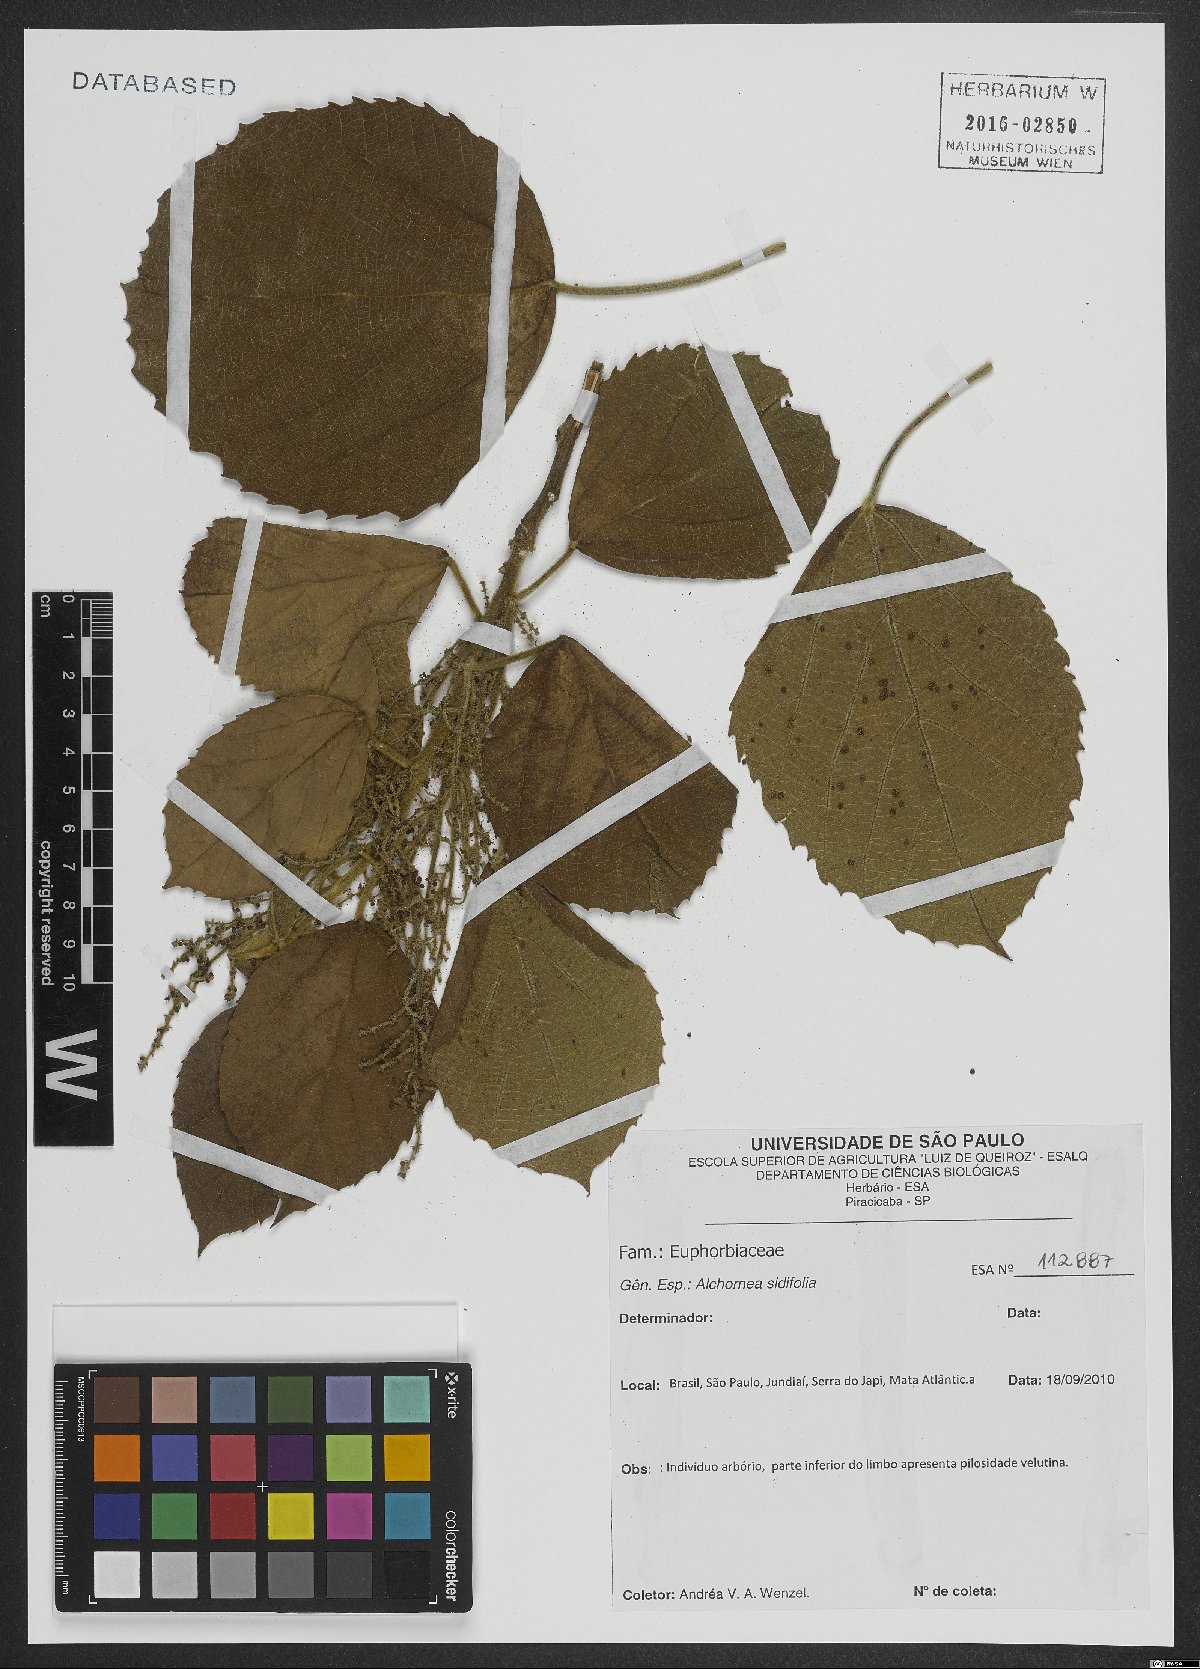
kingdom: Plantae
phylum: Tracheophyta
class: Magnoliopsida
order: Malpighiales
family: Euphorbiaceae
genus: Alchornea
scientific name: Alchornea sidifolia
